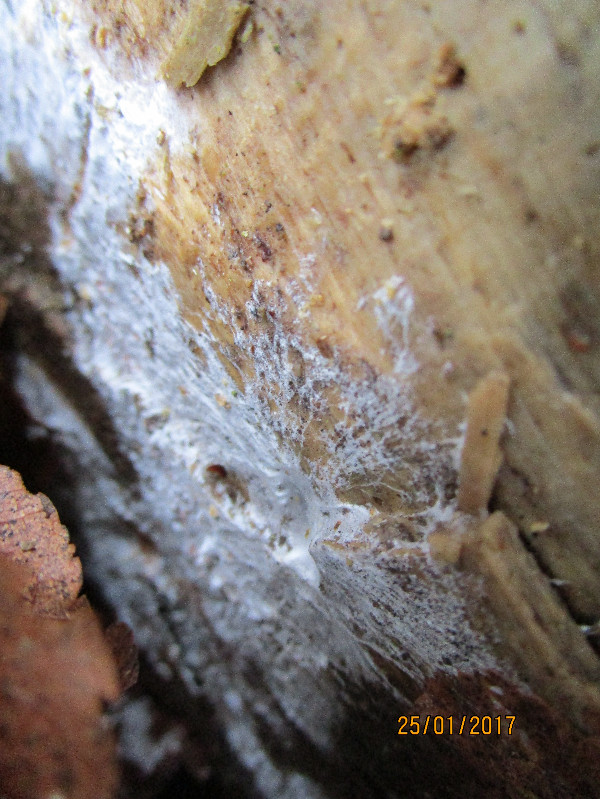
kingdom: Fungi
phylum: Basidiomycota
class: Agaricomycetes
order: Corticiales
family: Corticiaceae
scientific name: Corticiaceae
